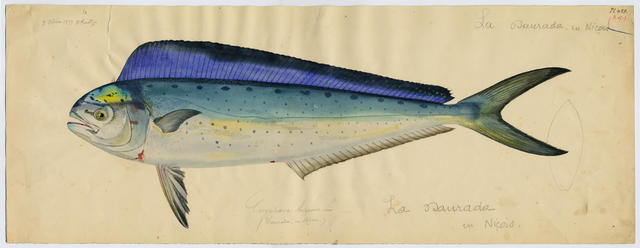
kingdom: Animalia
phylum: Chordata
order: Perciformes
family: Coryphaenidae
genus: Coryphaena
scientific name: Coryphaena hippurus
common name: Dolphin
